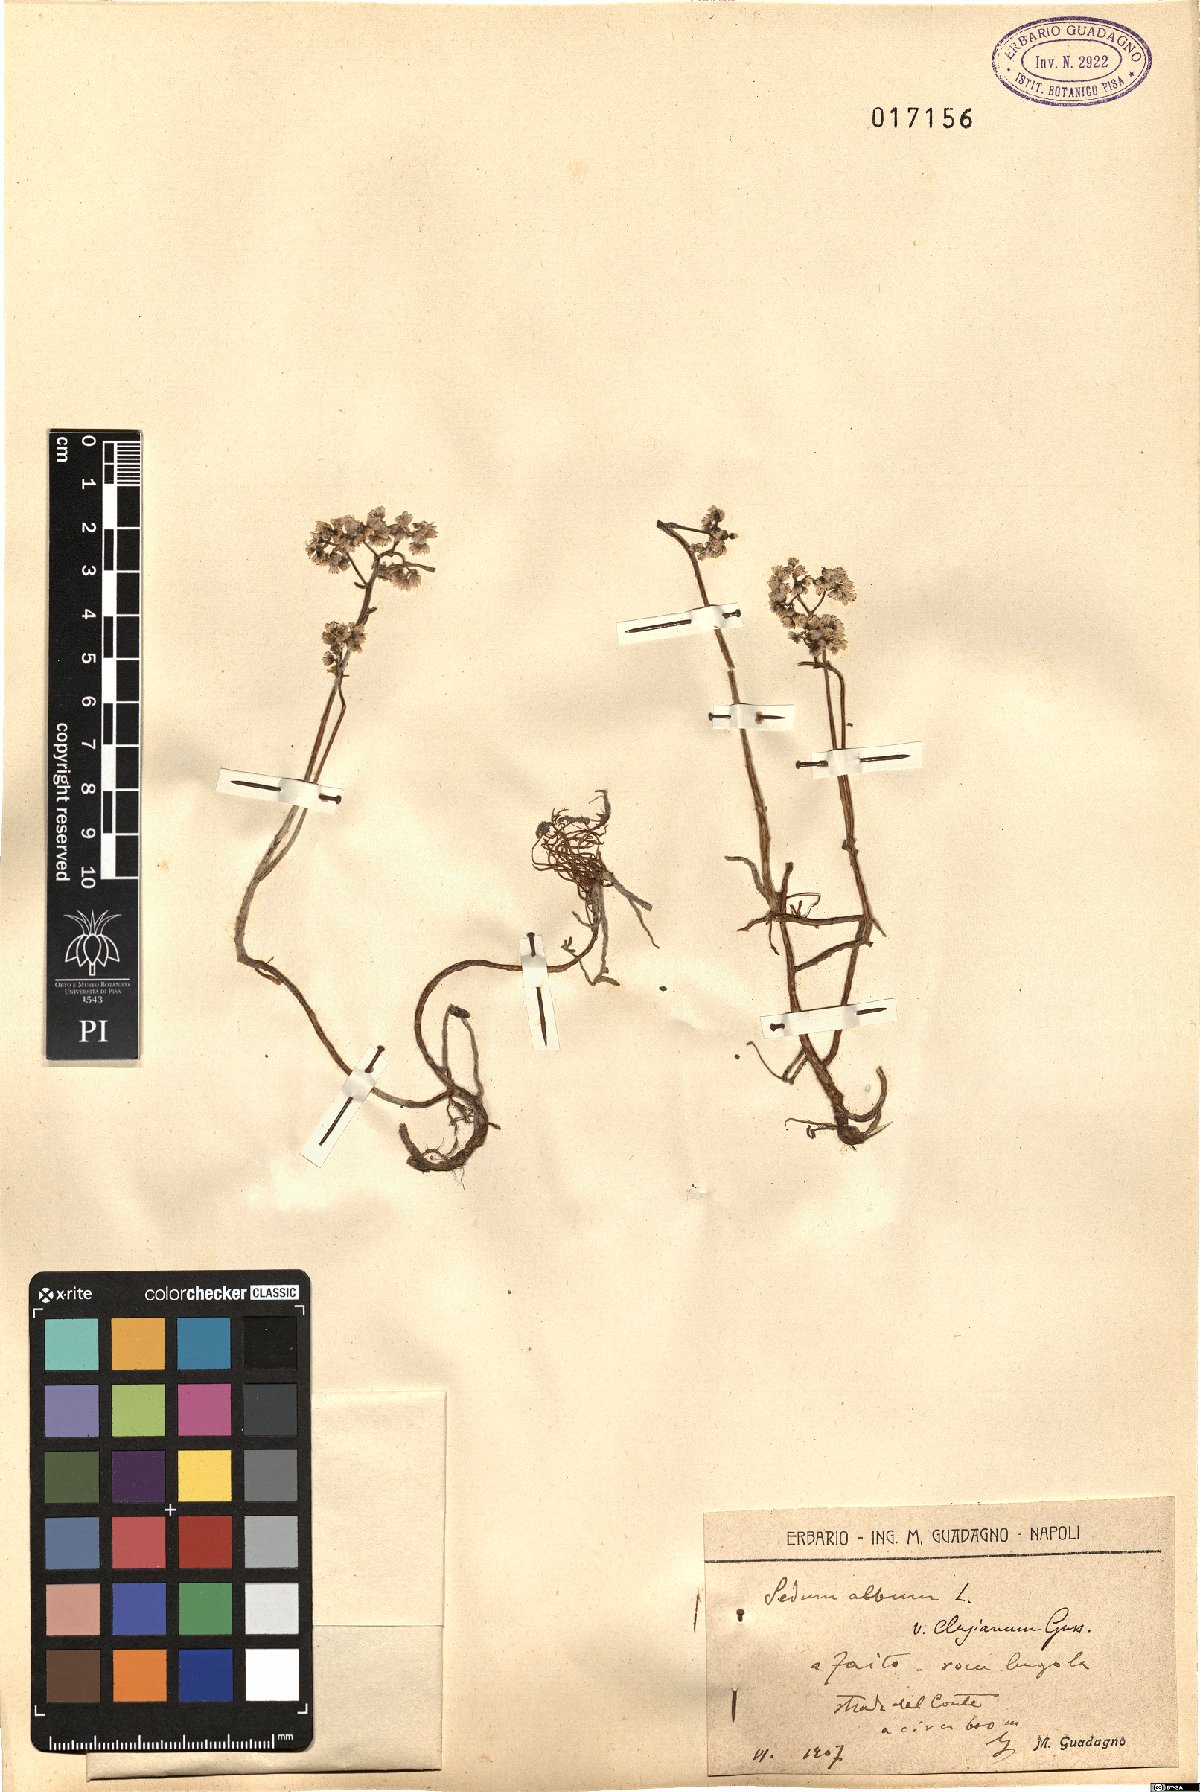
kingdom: Plantae
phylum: Tracheophyta
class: Magnoliopsida
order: Saxifragales
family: Crassulaceae
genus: Sedum
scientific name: Sedum gypsicola
